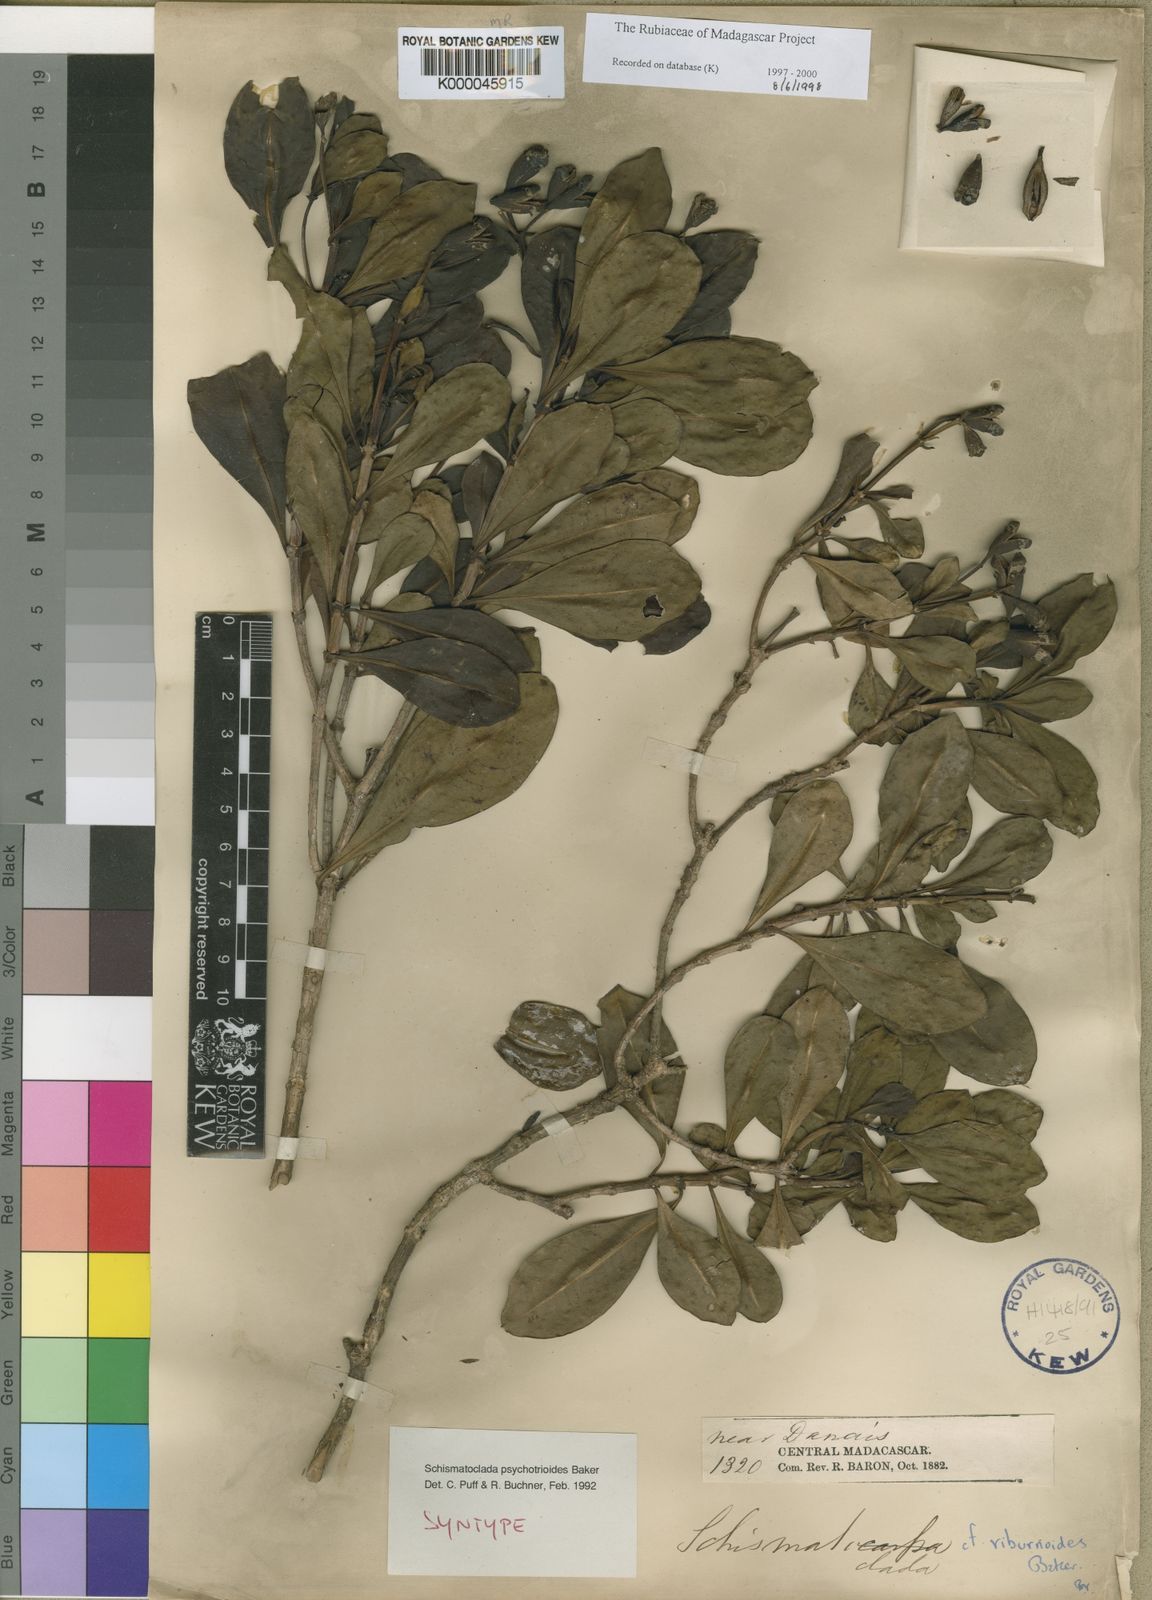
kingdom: Plantae
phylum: Tracheophyta
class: Magnoliopsida
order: Gentianales
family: Rubiaceae
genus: Schismatoclada
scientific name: Schismatoclada viburnoides
